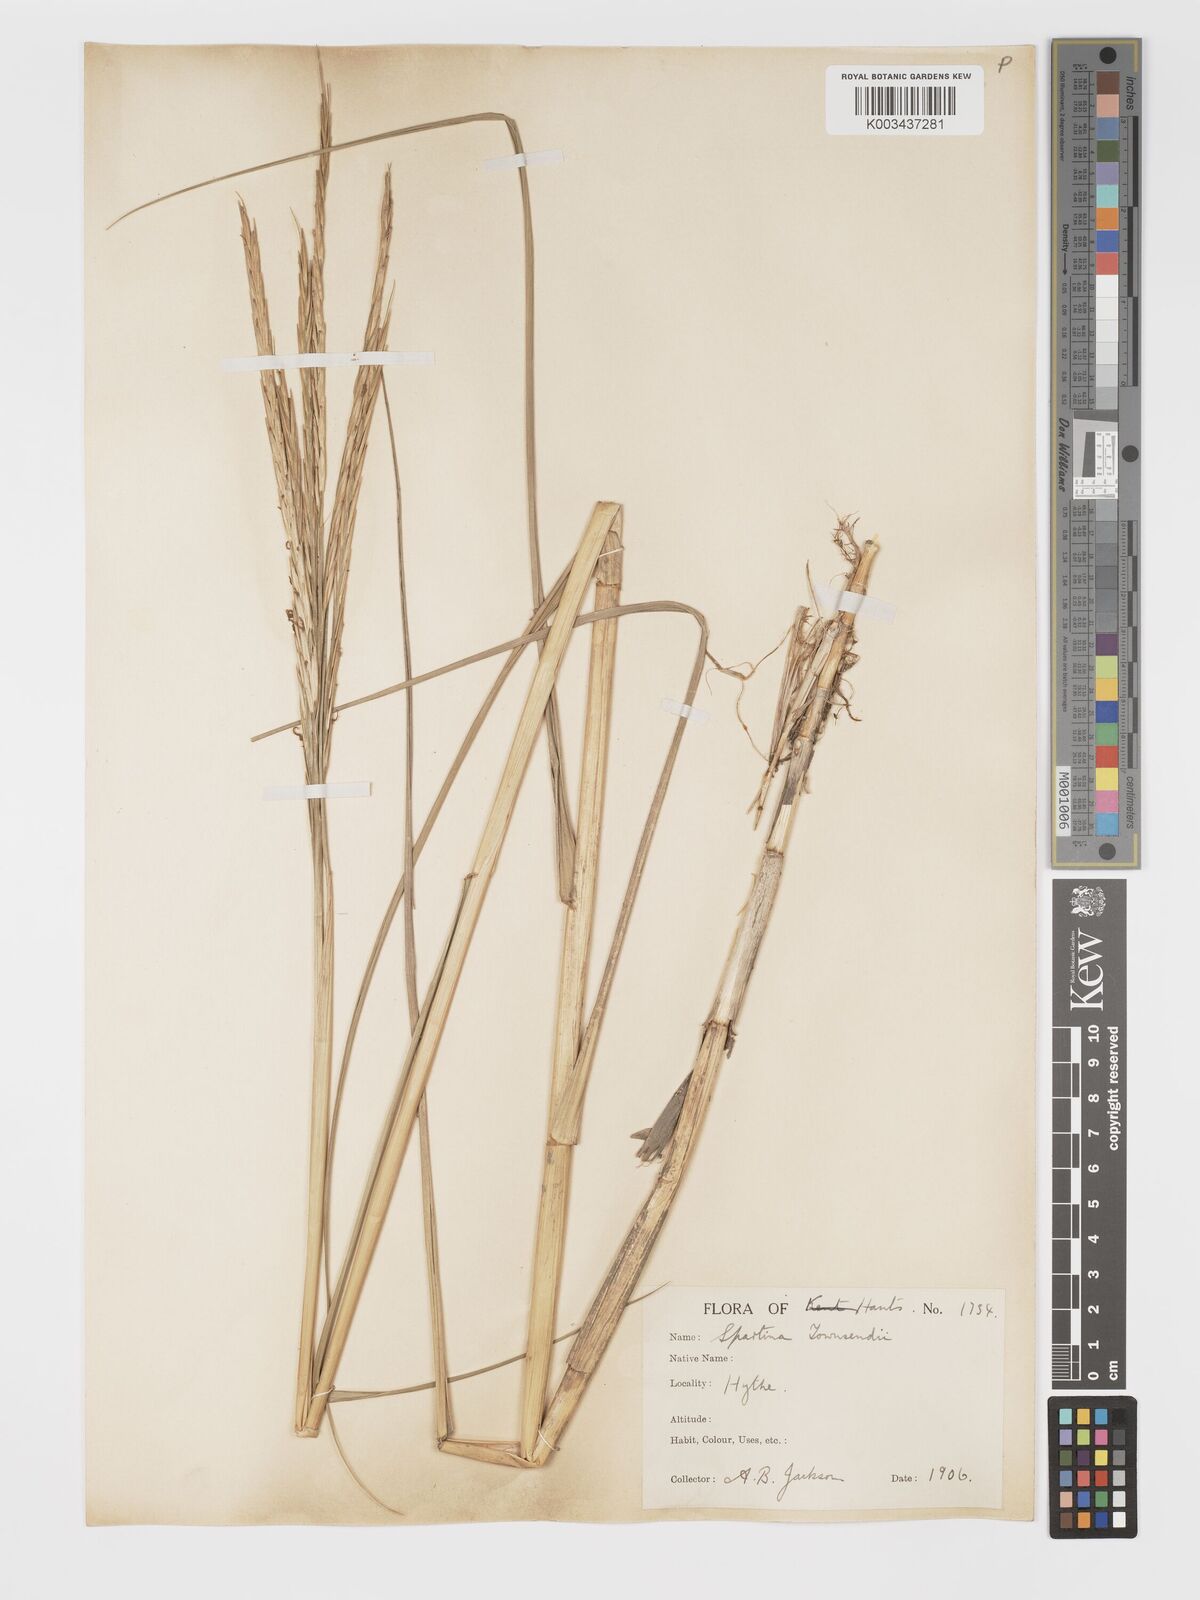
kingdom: Plantae
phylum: Tracheophyta
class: Liliopsida
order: Poales
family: Poaceae
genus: Sporobolus
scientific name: Sporobolus townsendii
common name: Townsend's cordgrass
